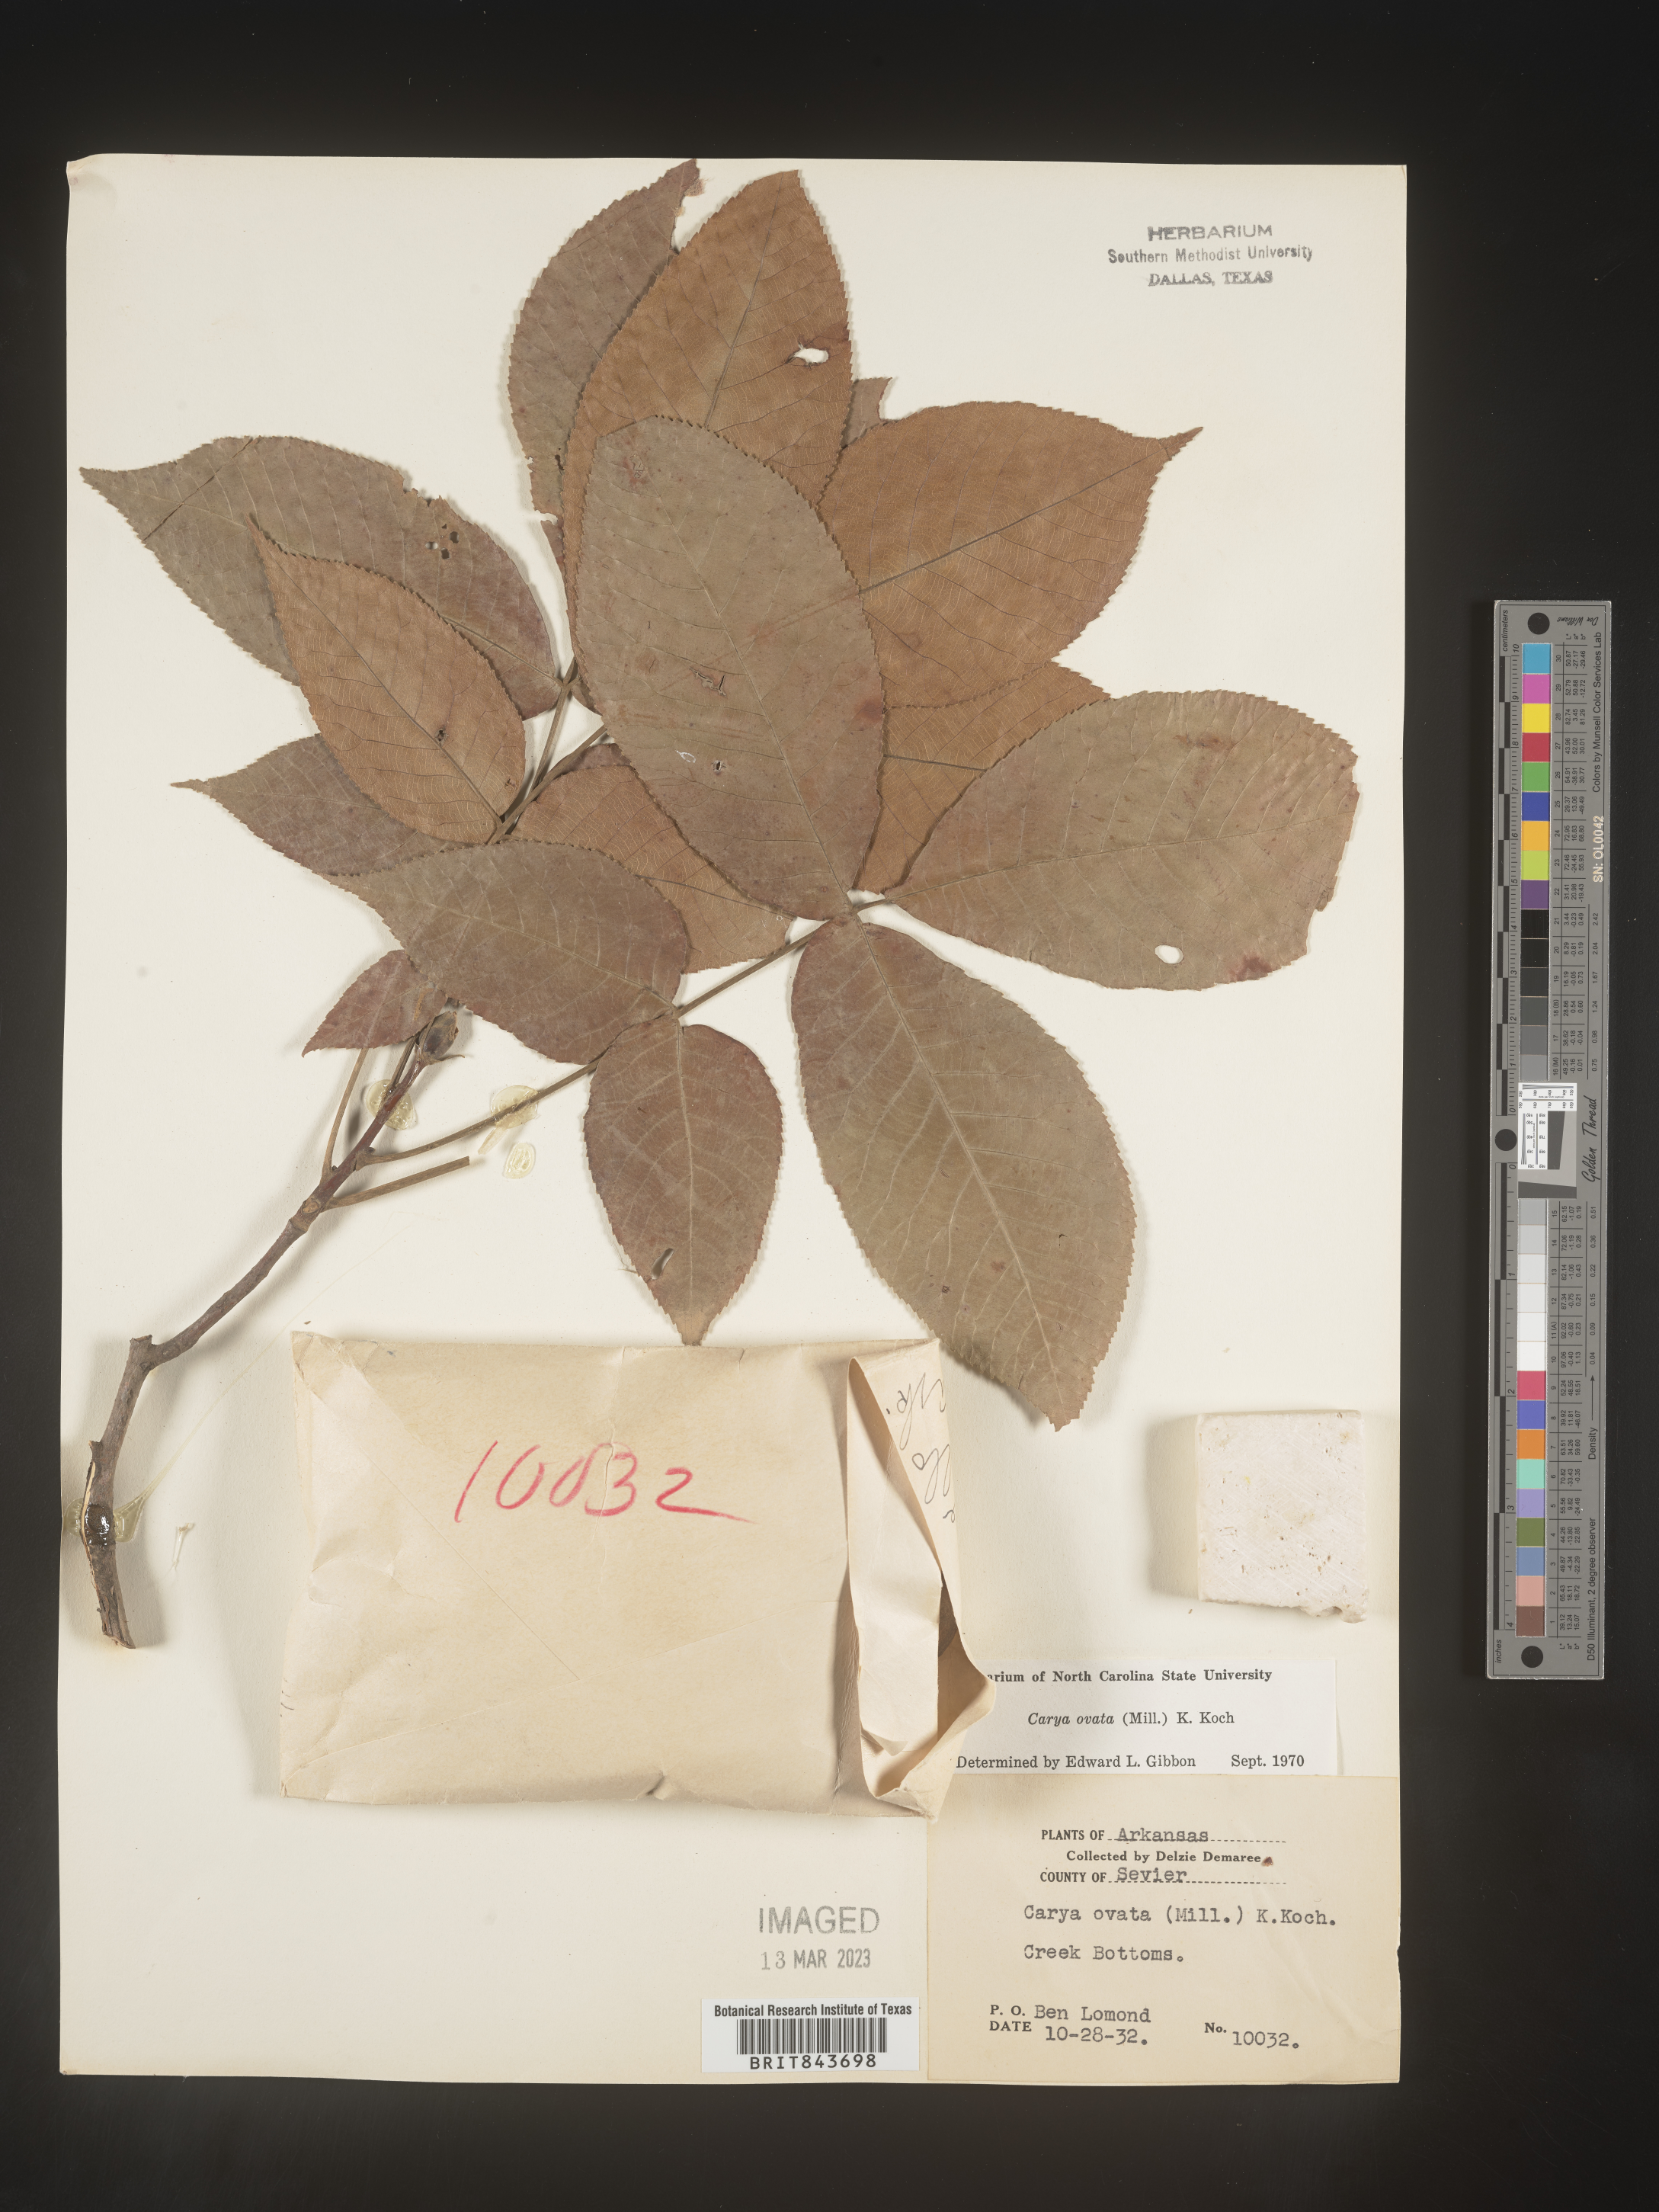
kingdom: Plantae
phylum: Tracheophyta
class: Magnoliopsida
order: Fagales
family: Juglandaceae
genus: Carya
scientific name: Carya ovata
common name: Shagbark hickory
